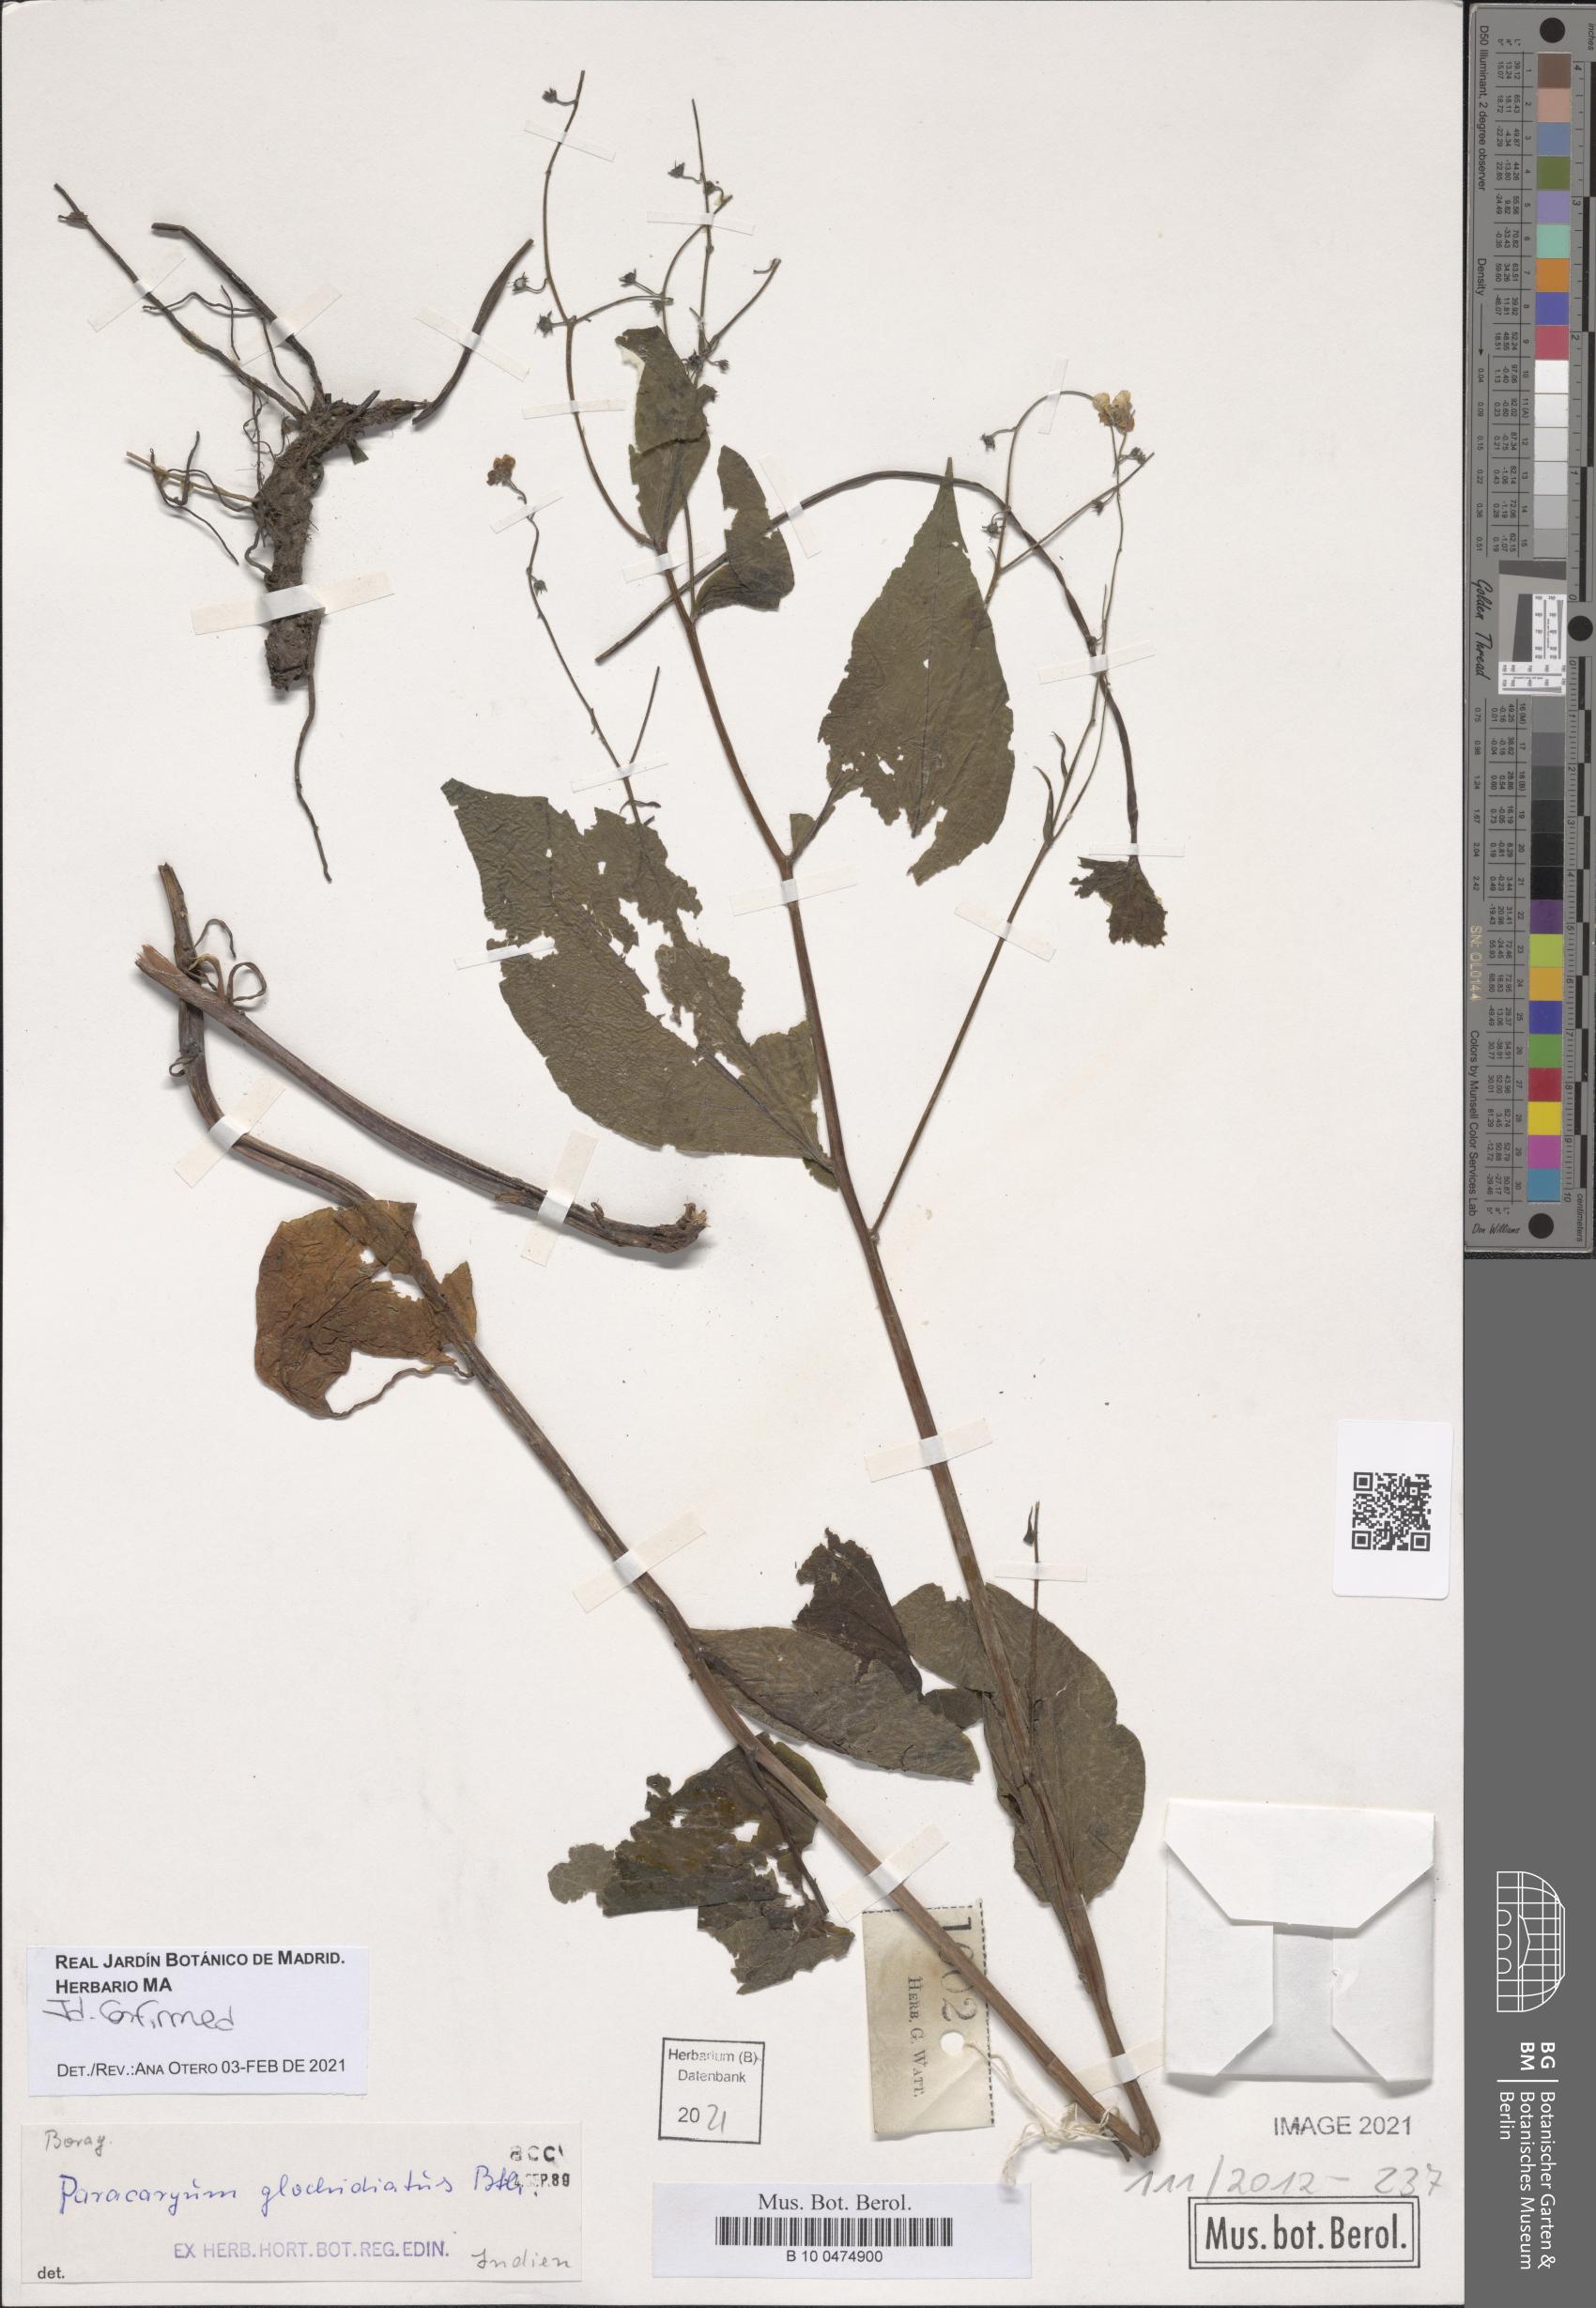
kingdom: Plantae
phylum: Tracheophyta
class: Magnoliopsida
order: Boraginales
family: Boraginaceae
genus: Microparacaryum
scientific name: Microparacaryum intermedium
